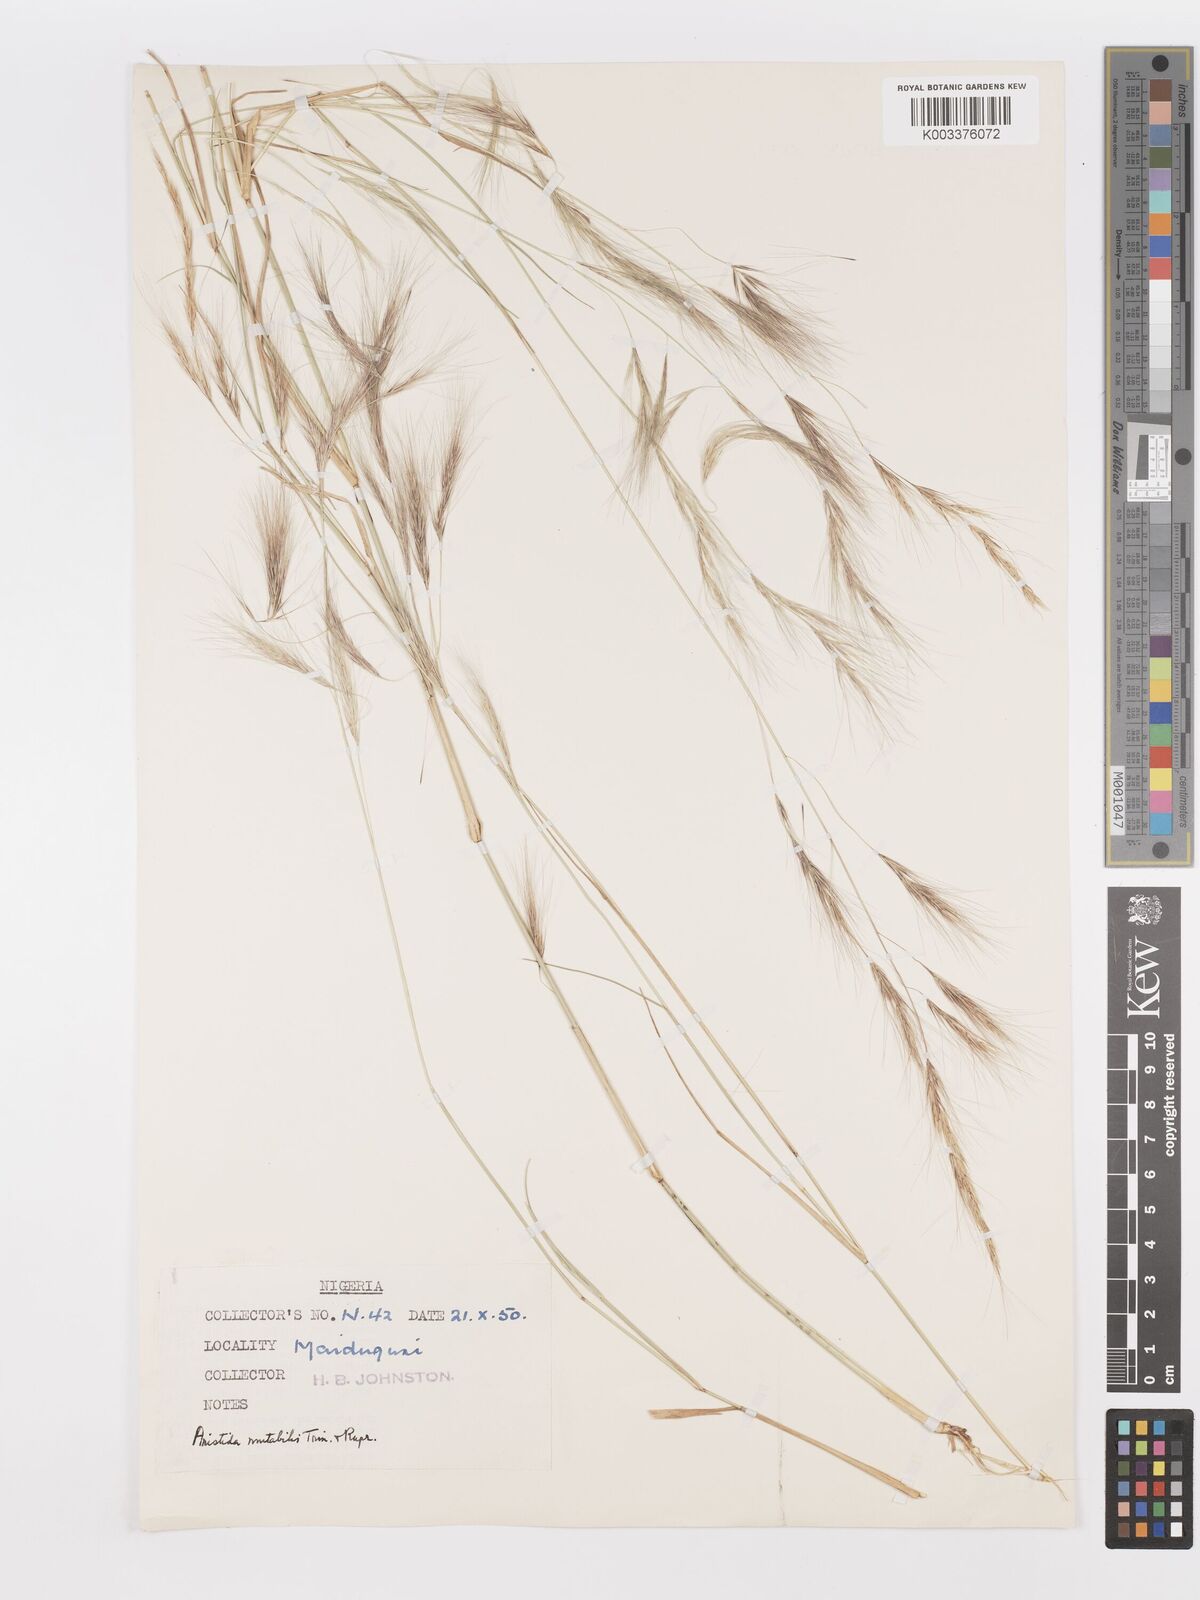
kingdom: Plantae
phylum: Tracheophyta
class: Liliopsida
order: Poales
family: Poaceae
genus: Aristida
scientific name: Aristida mutabilis
